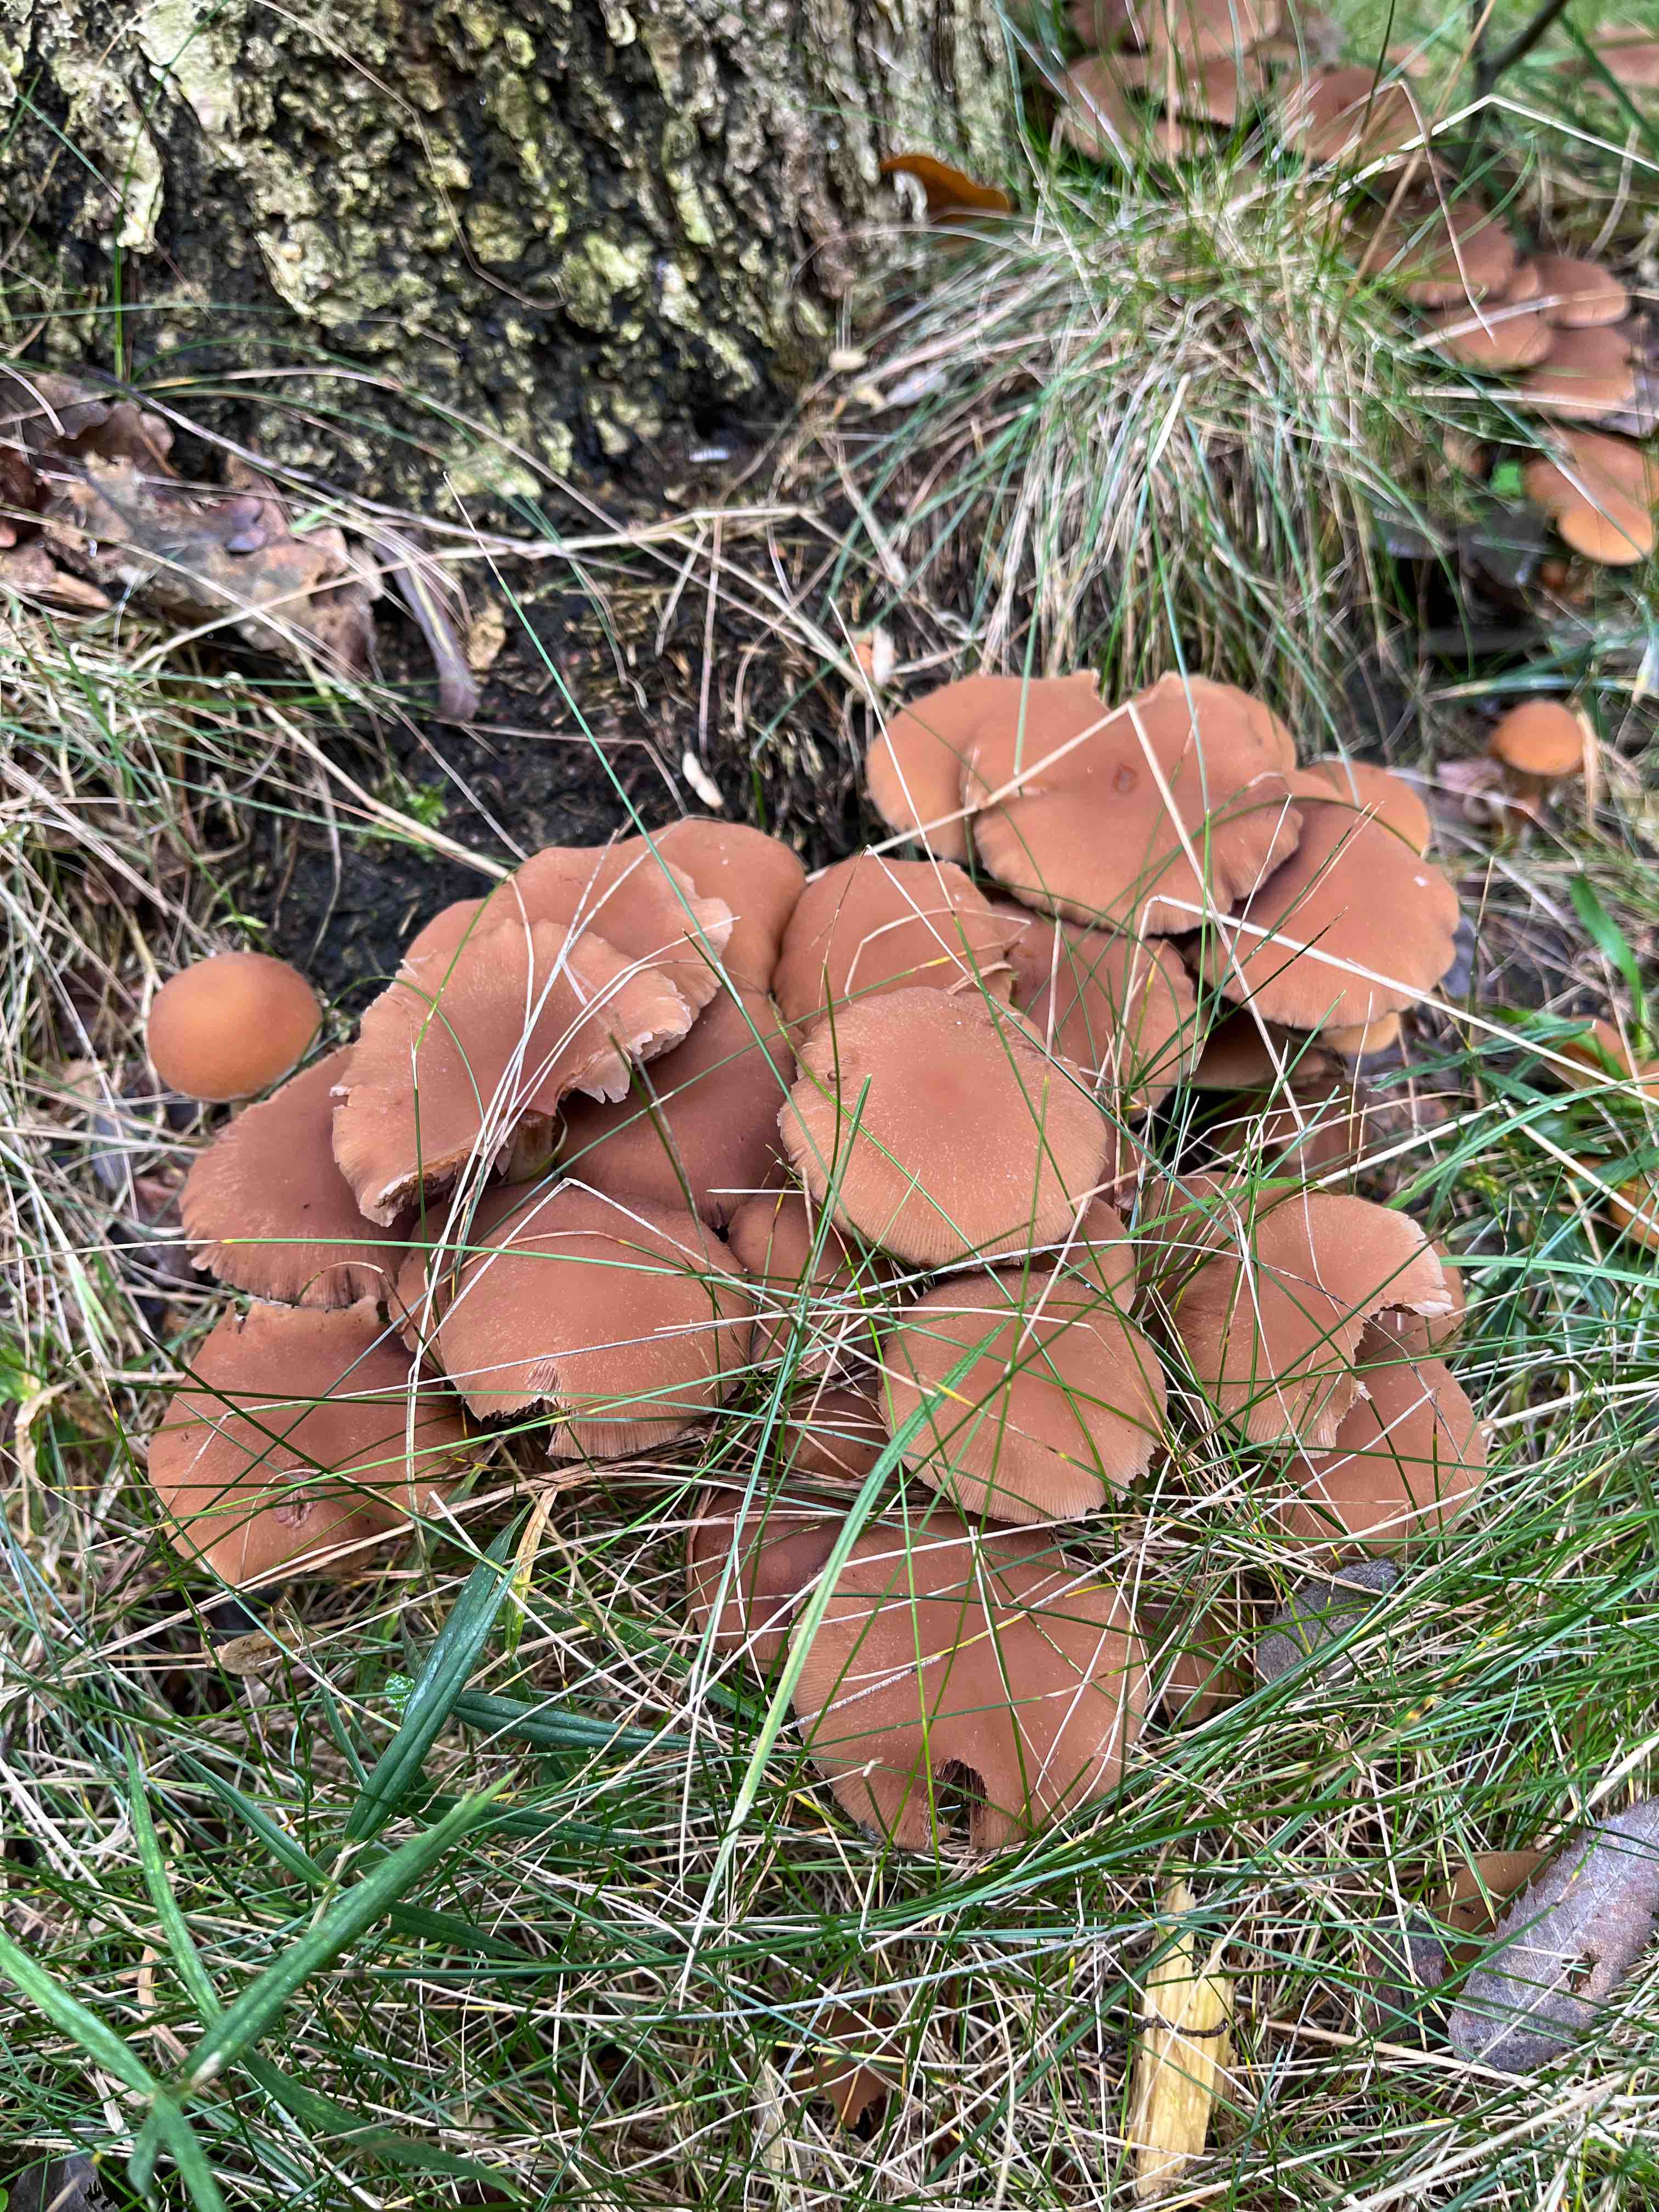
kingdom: Fungi
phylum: Basidiomycota
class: Agaricomycetes
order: Agaricales
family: Psathyrellaceae
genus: Psathyrella
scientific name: Psathyrella
